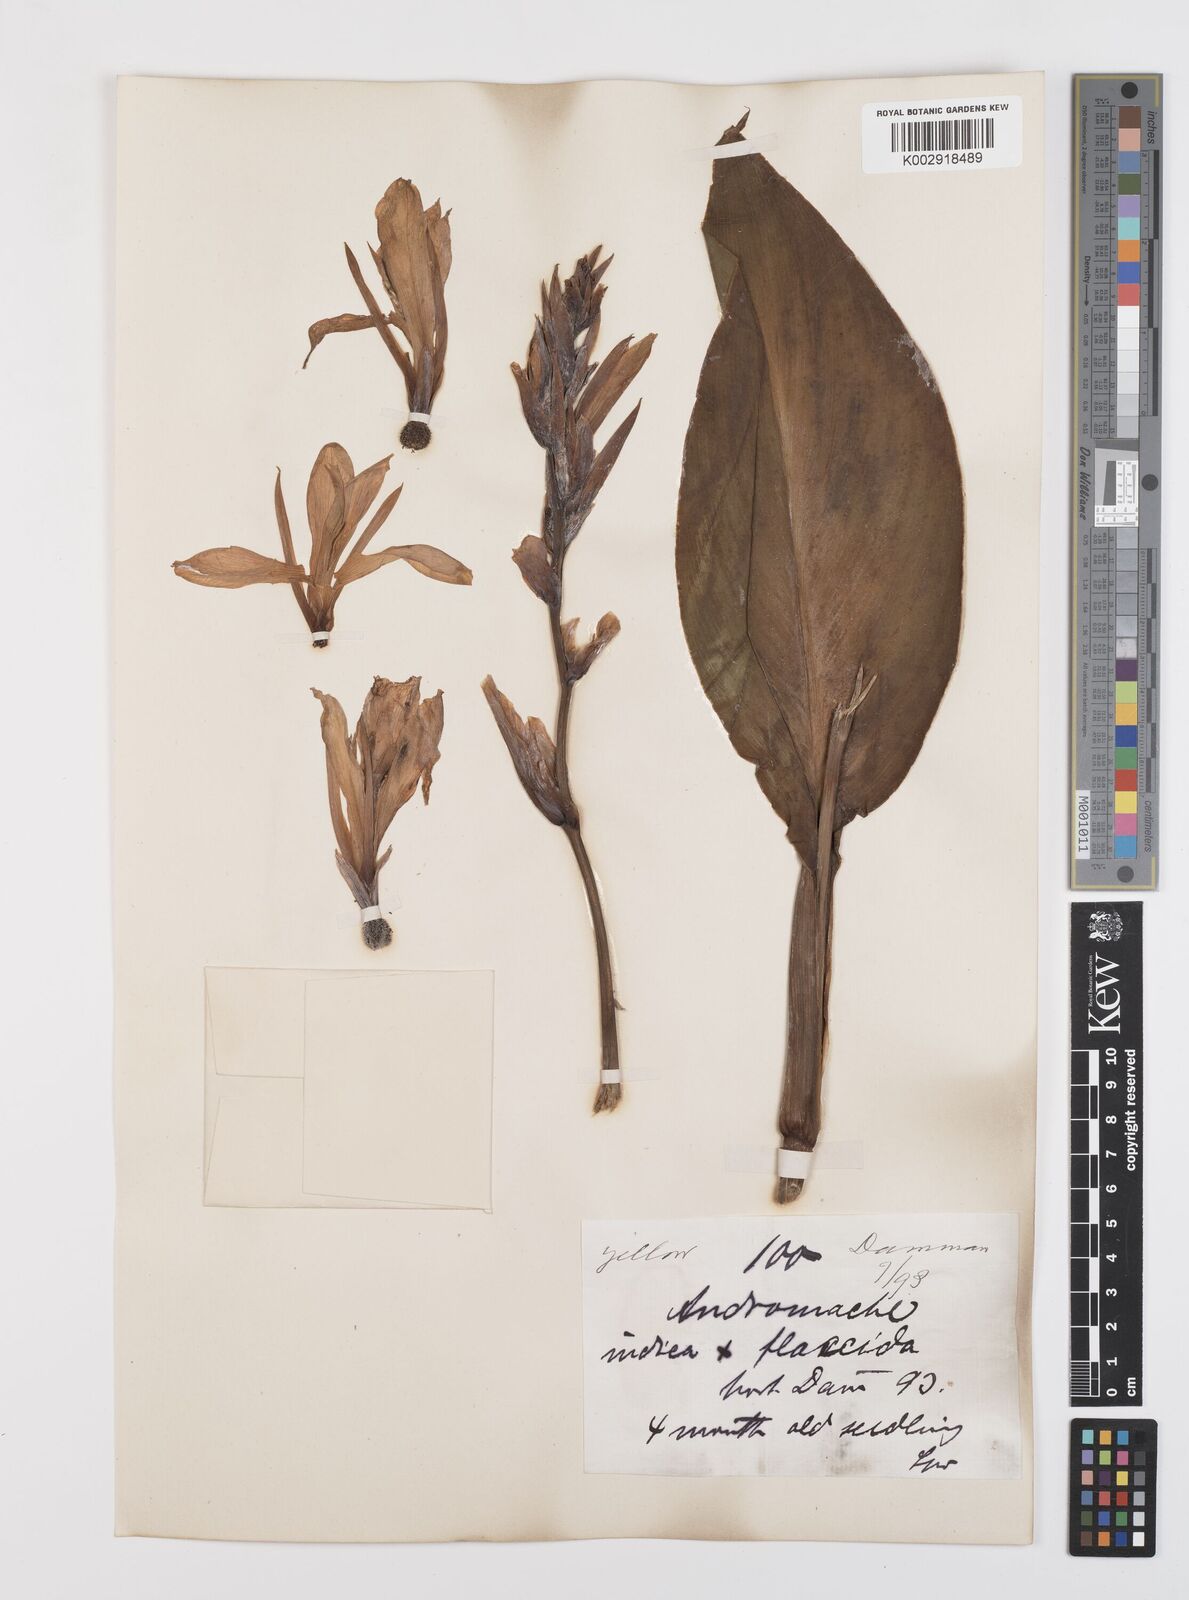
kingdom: Plantae
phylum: Tracheophyta
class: Liliopsida
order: Zingiberales
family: Cannaceae
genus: Canna
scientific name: Canna indica
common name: Indian shot
